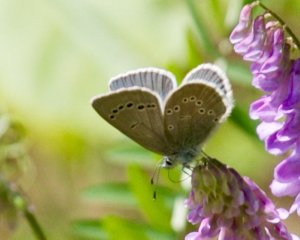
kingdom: Animalia
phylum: Arthropoda
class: Insecta
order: Lepidoptera
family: Lycaenidae
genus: Glaucopsyche
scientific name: Glaucopsyche lygdamus
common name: Silvery Blue
